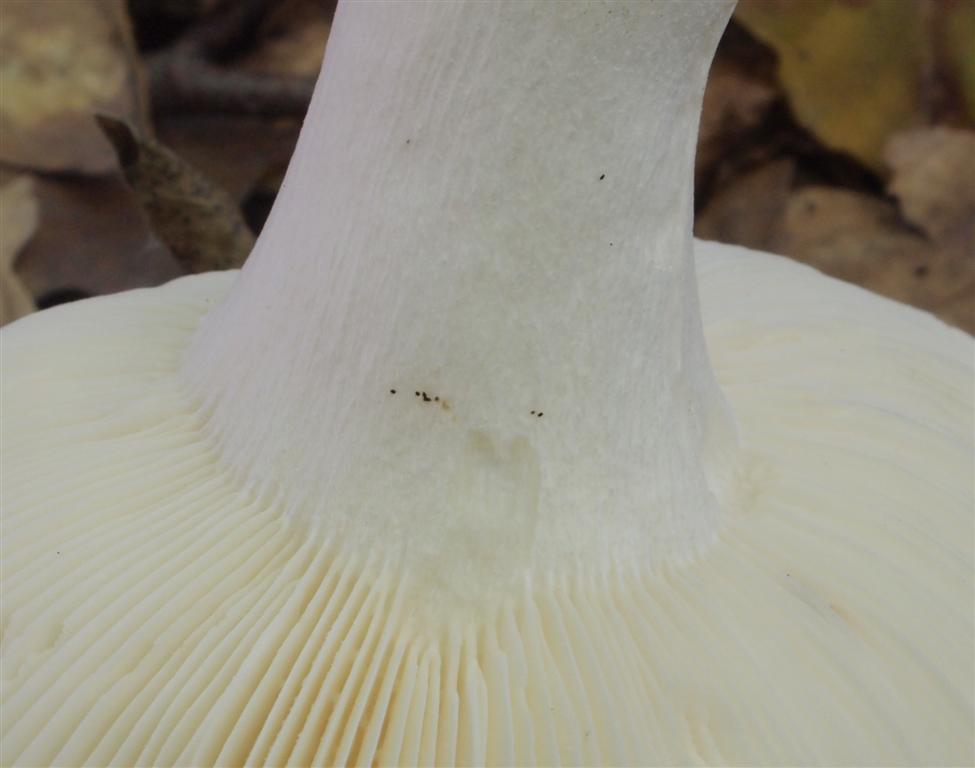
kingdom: Fungi
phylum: Basidiomycota
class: Agaricomycetes
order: Russulales
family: Russulaceae
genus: Russula
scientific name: Russula velenovskyi
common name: orangerød skørhat
